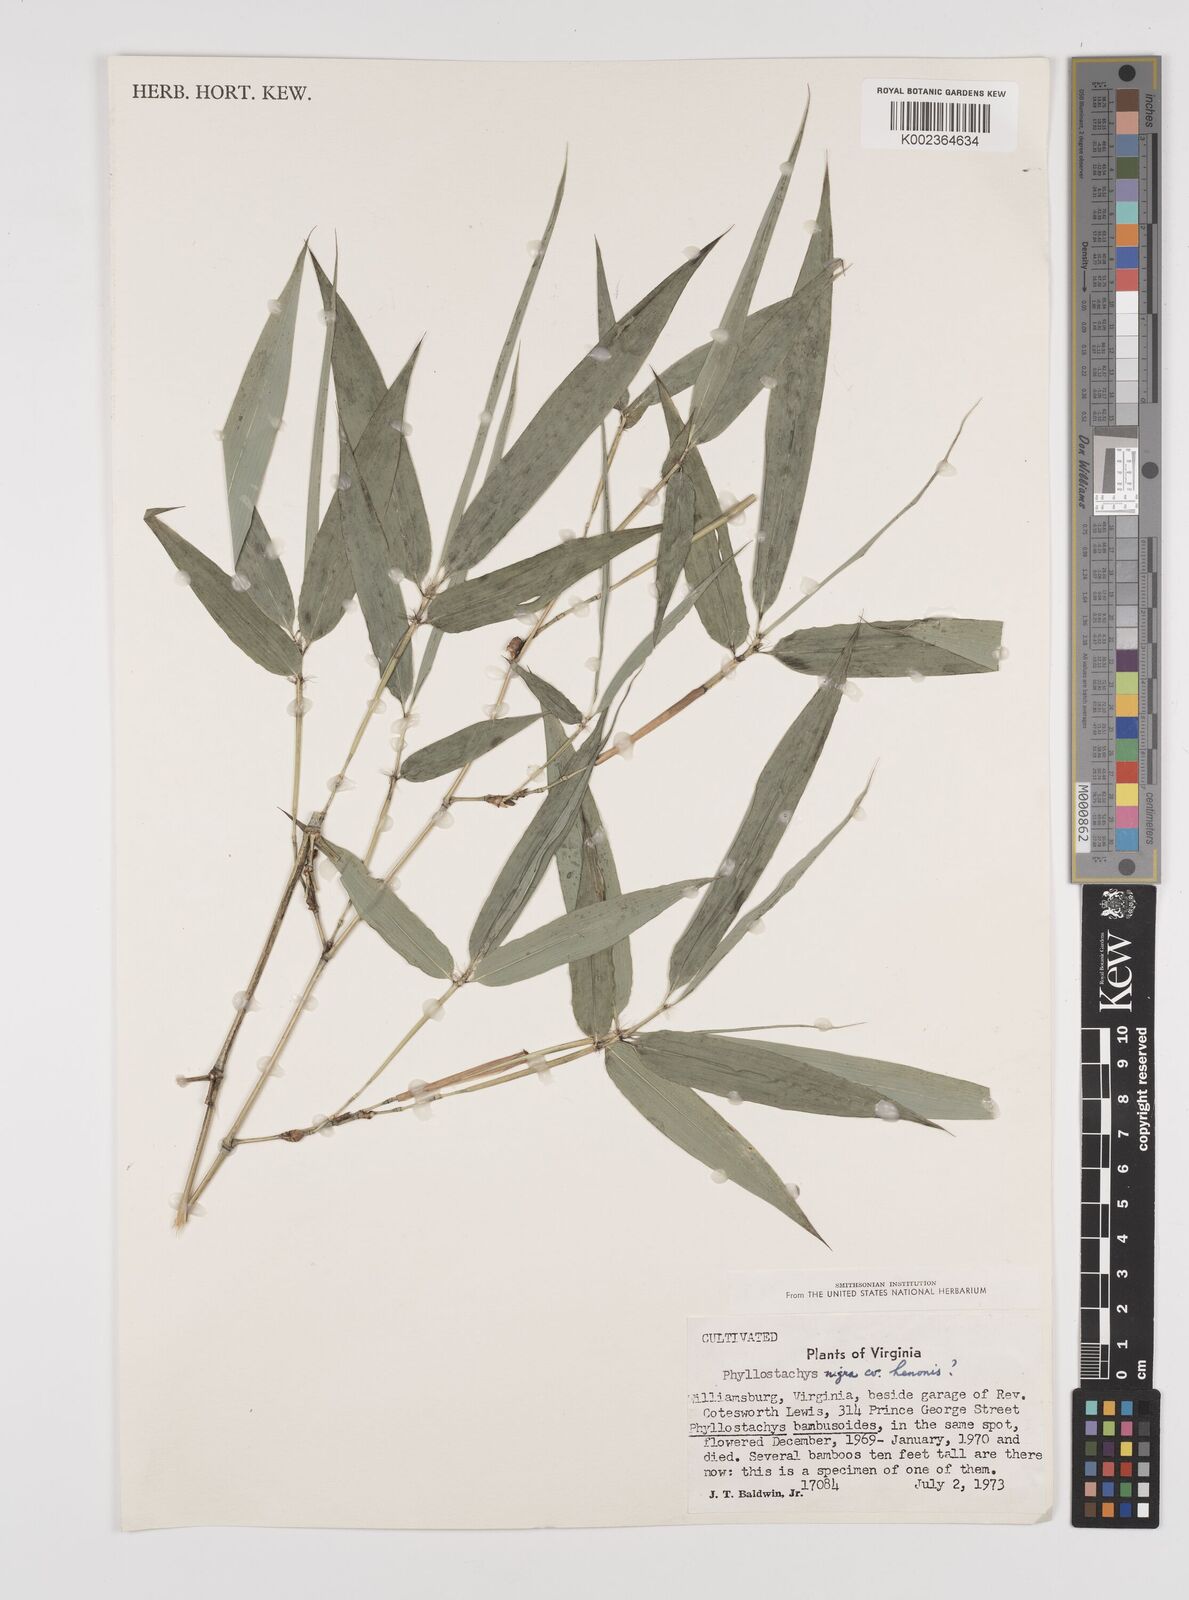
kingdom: Plantae
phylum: Tracheophyta
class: Liliopsida
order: Poales
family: Poaceae
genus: Phyllostachys
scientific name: Phyllostachys nigra
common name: Black bamboo
